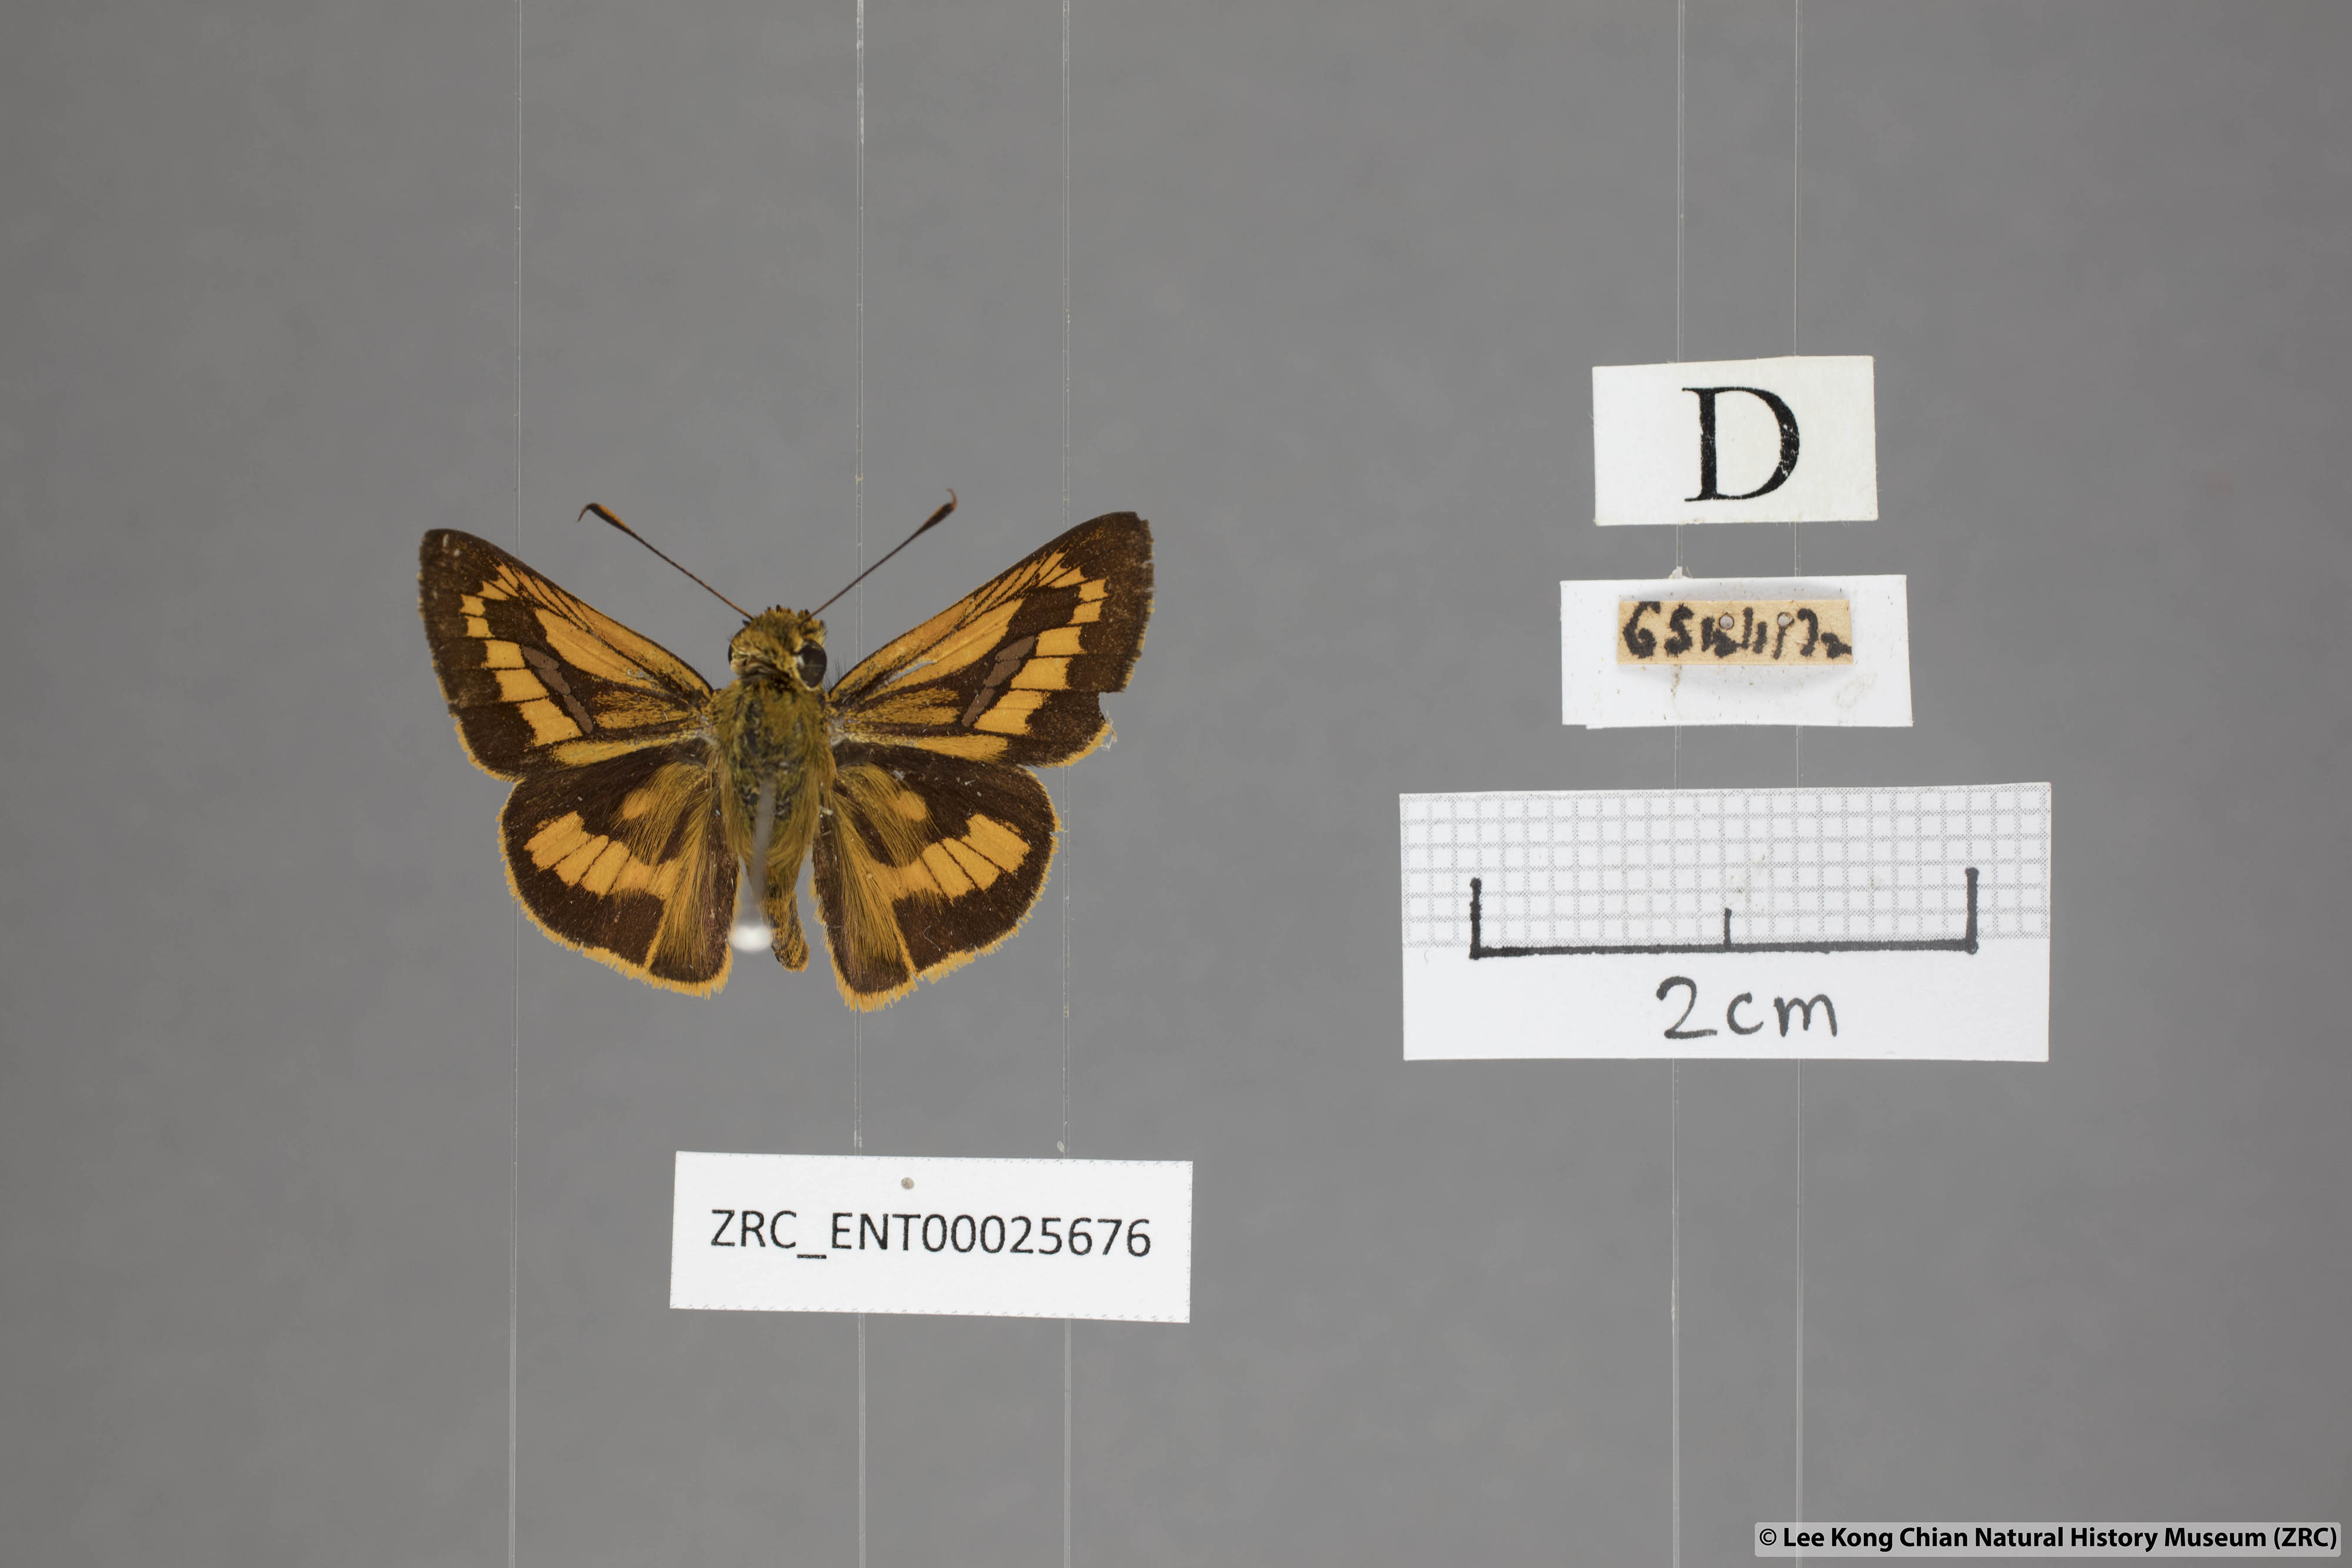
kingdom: Animalia
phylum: Arthropoda
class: Insecta
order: Lepidoptera
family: Hesperiidae
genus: Telicota
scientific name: Telicota hilda
